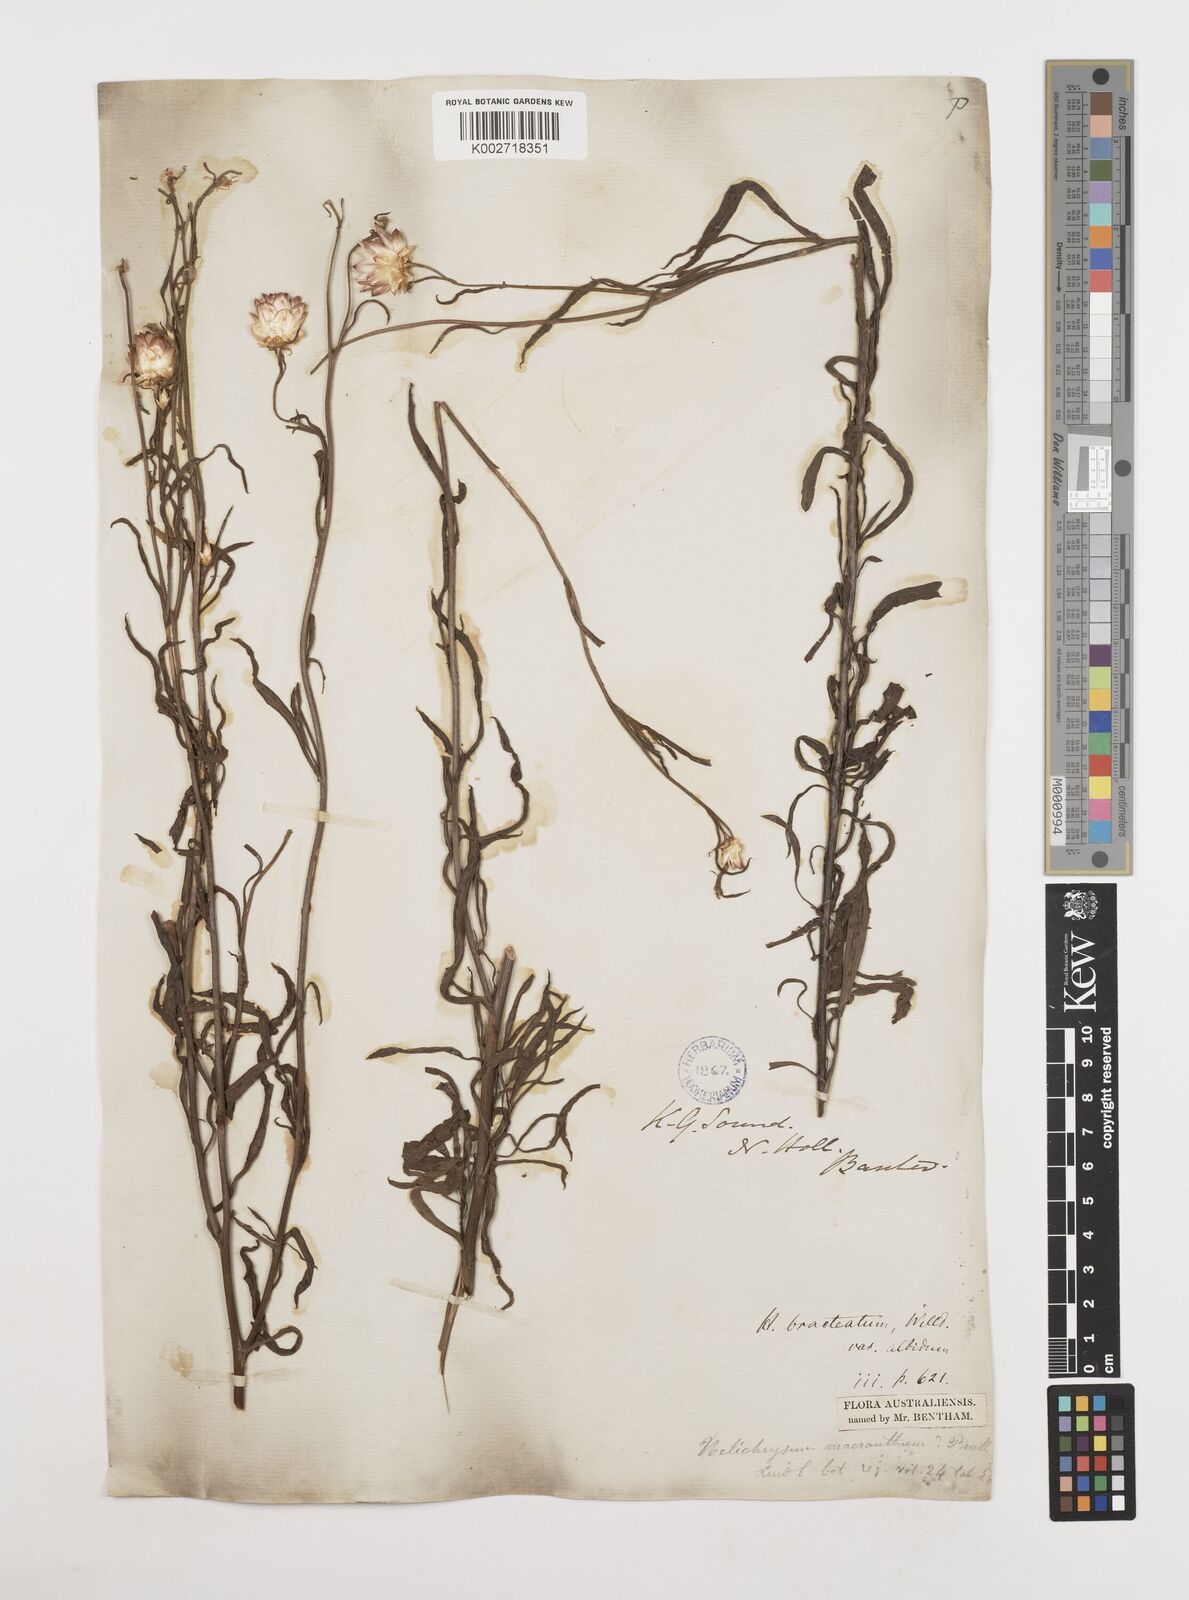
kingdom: Plantae
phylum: Tracheophyta
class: Magnoliopsida
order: Asterales
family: Asteraceae
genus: Xerochrysum
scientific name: Xerochrysum bracteatum
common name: Bracted strawflower
